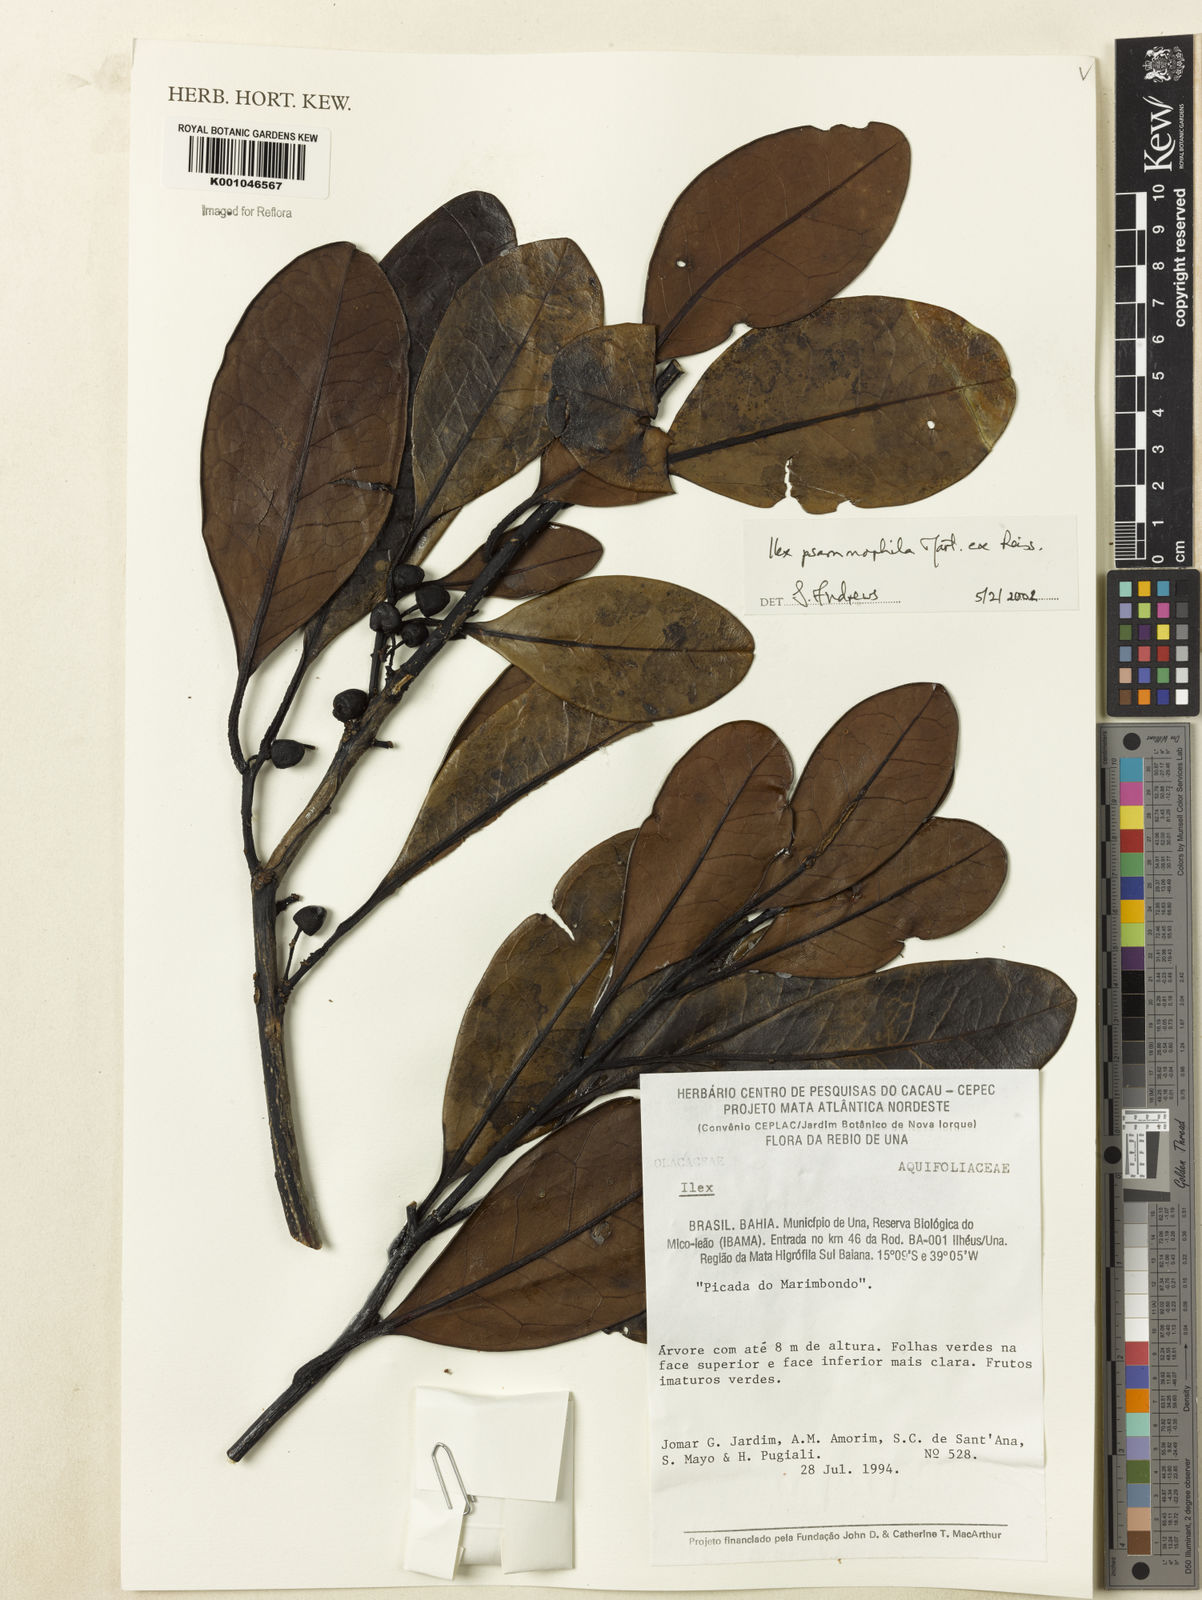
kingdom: Plantae
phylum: Tracheophyta
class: Magnoliopsida
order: Aquifoliales
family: Aquifoliaceae
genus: Ilex
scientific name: Ilex psammophila
